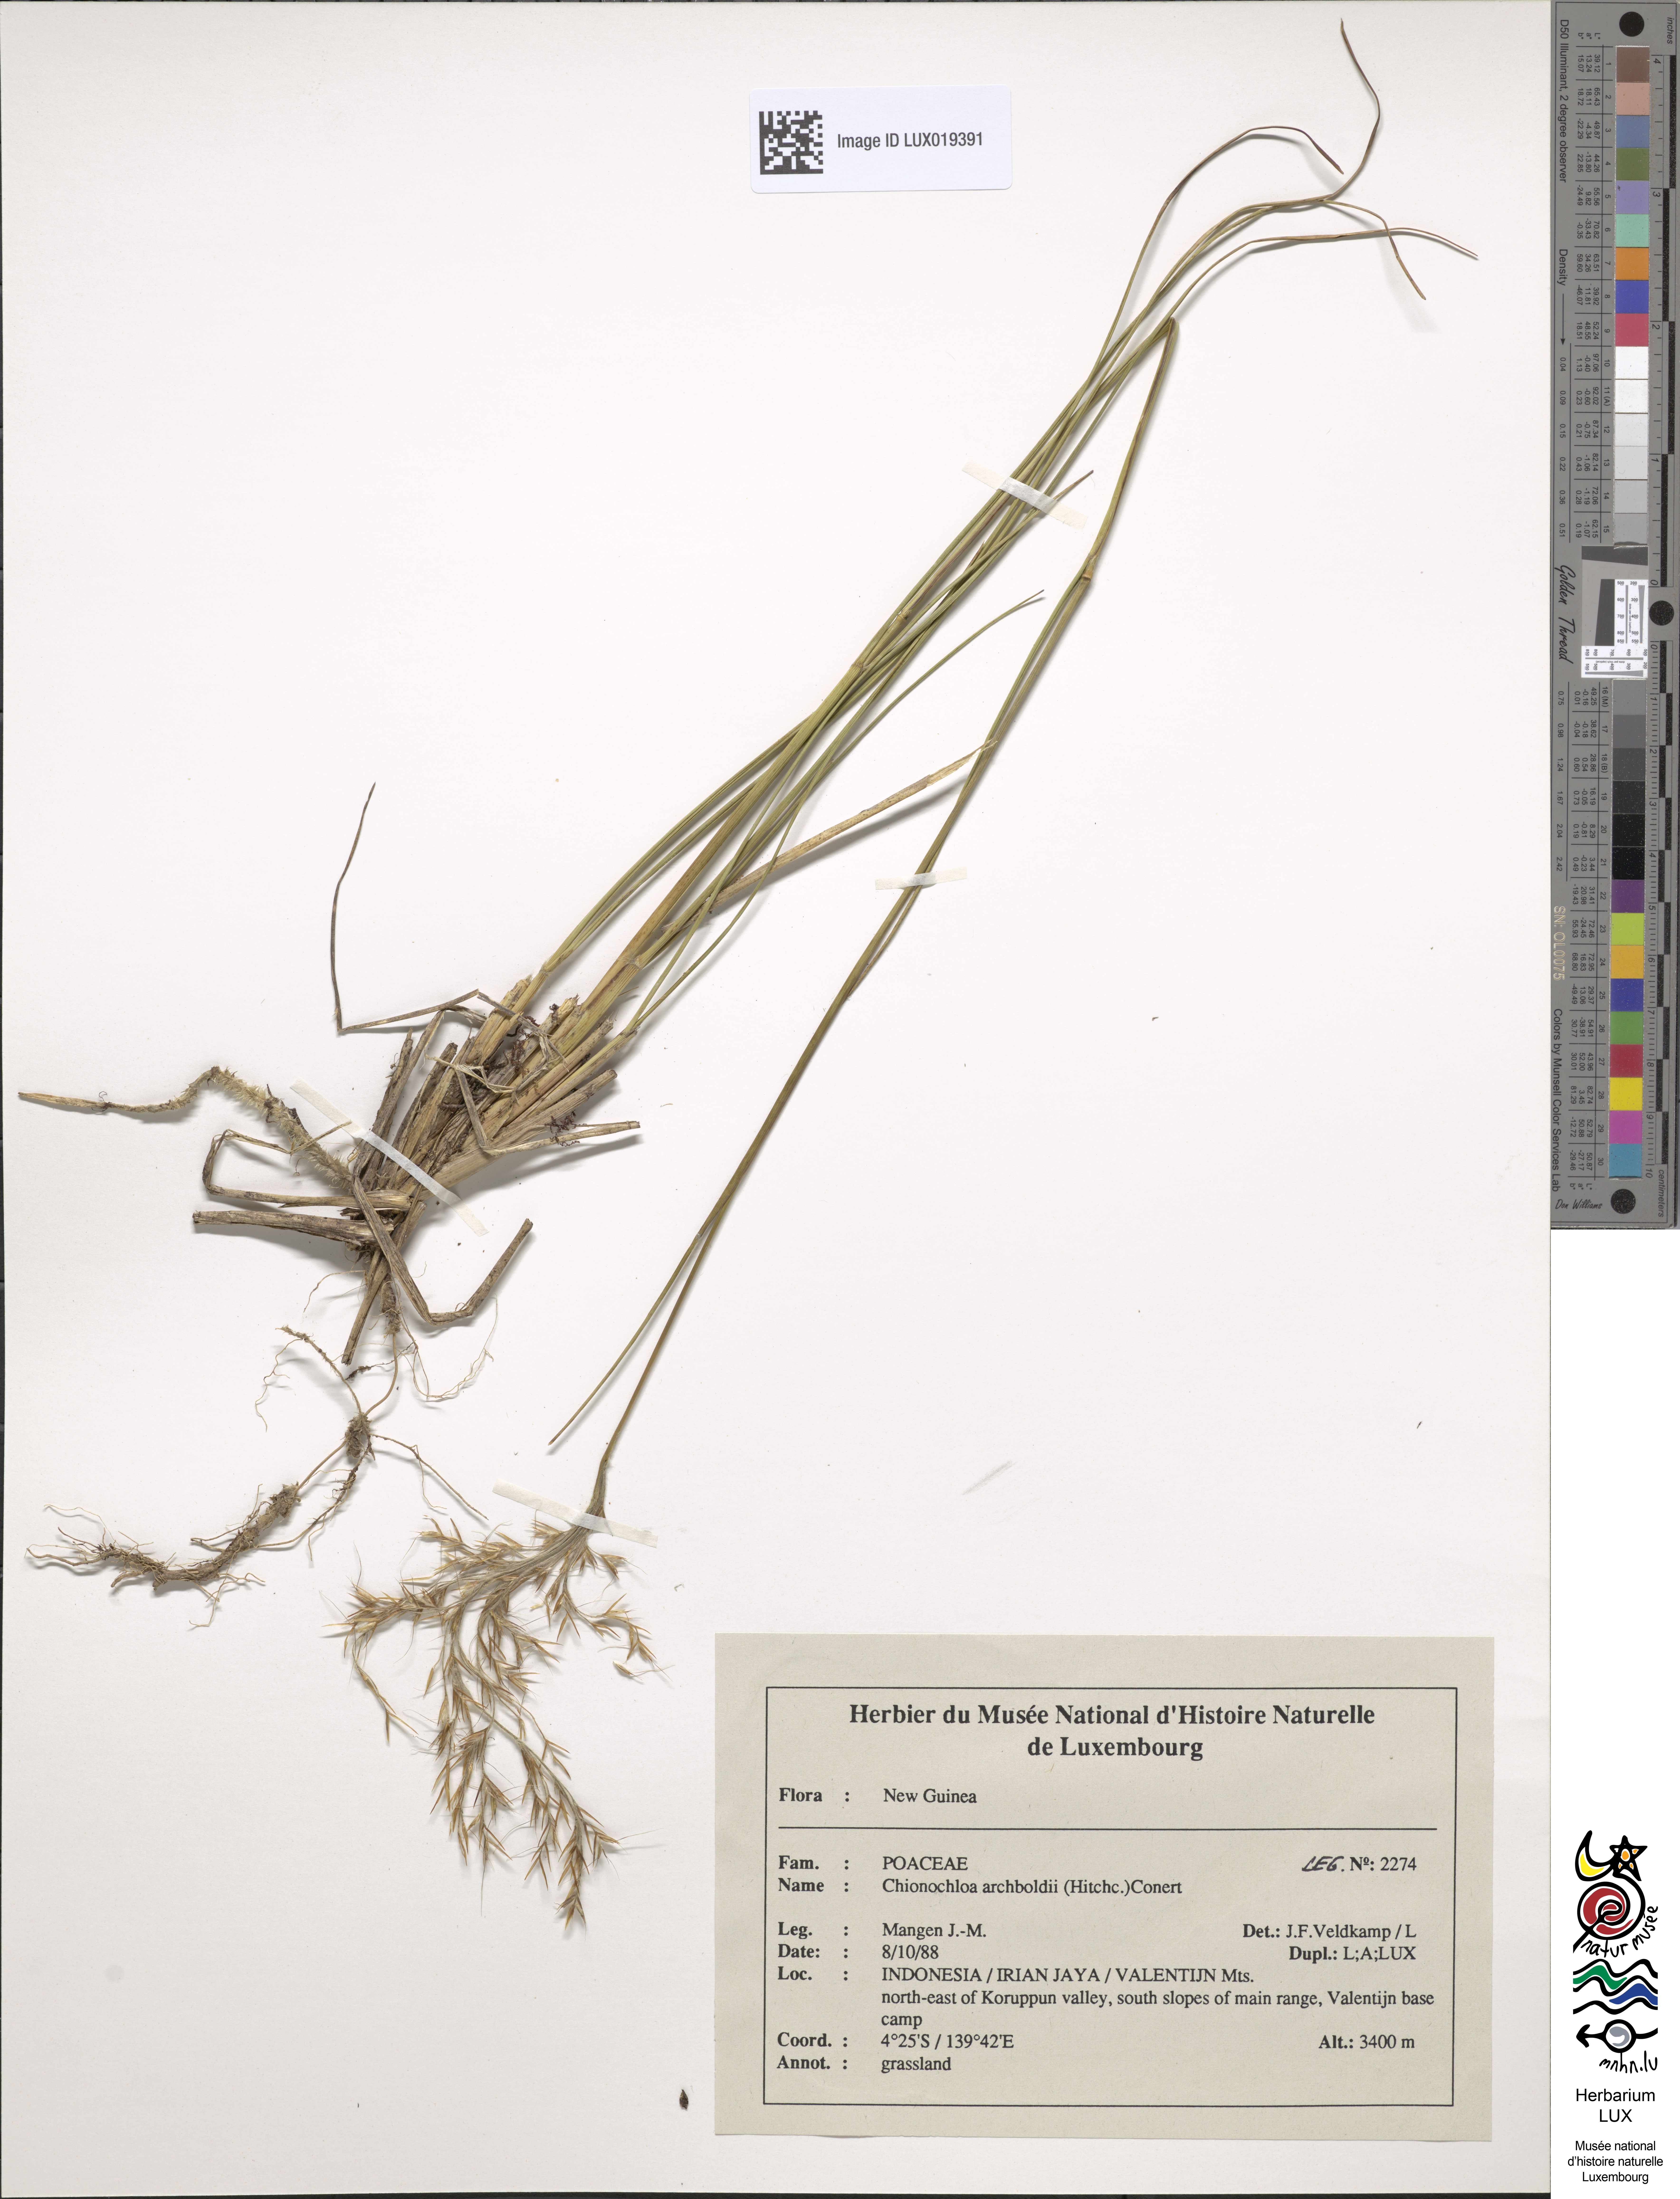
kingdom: Plantae
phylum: Tracheophyta
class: Liliopsida
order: Poales
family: Poaceae
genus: Chimaerochloa
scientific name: Chimaerochloa archboldii
